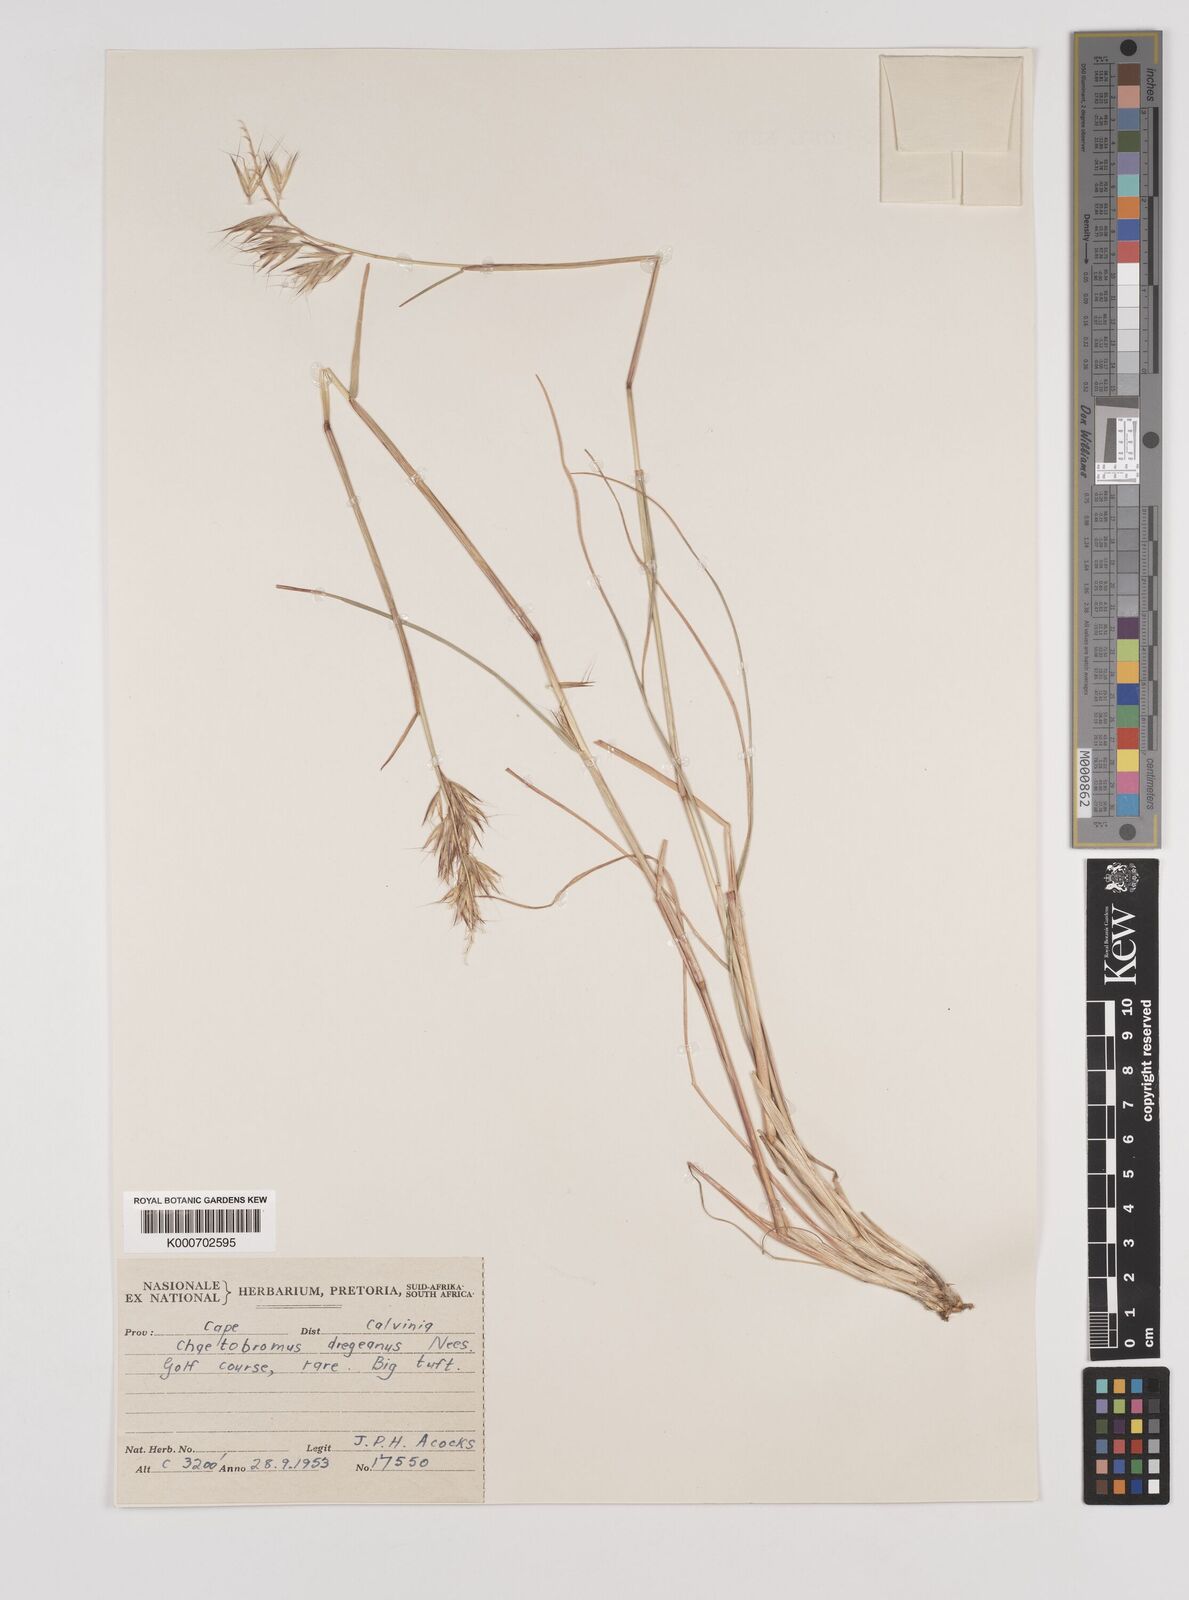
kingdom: Plantae
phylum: Tracheophyta
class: Liliopsida
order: Poales
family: Poaceae
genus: Chaetobromus
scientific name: Chaetobromus involucratus
